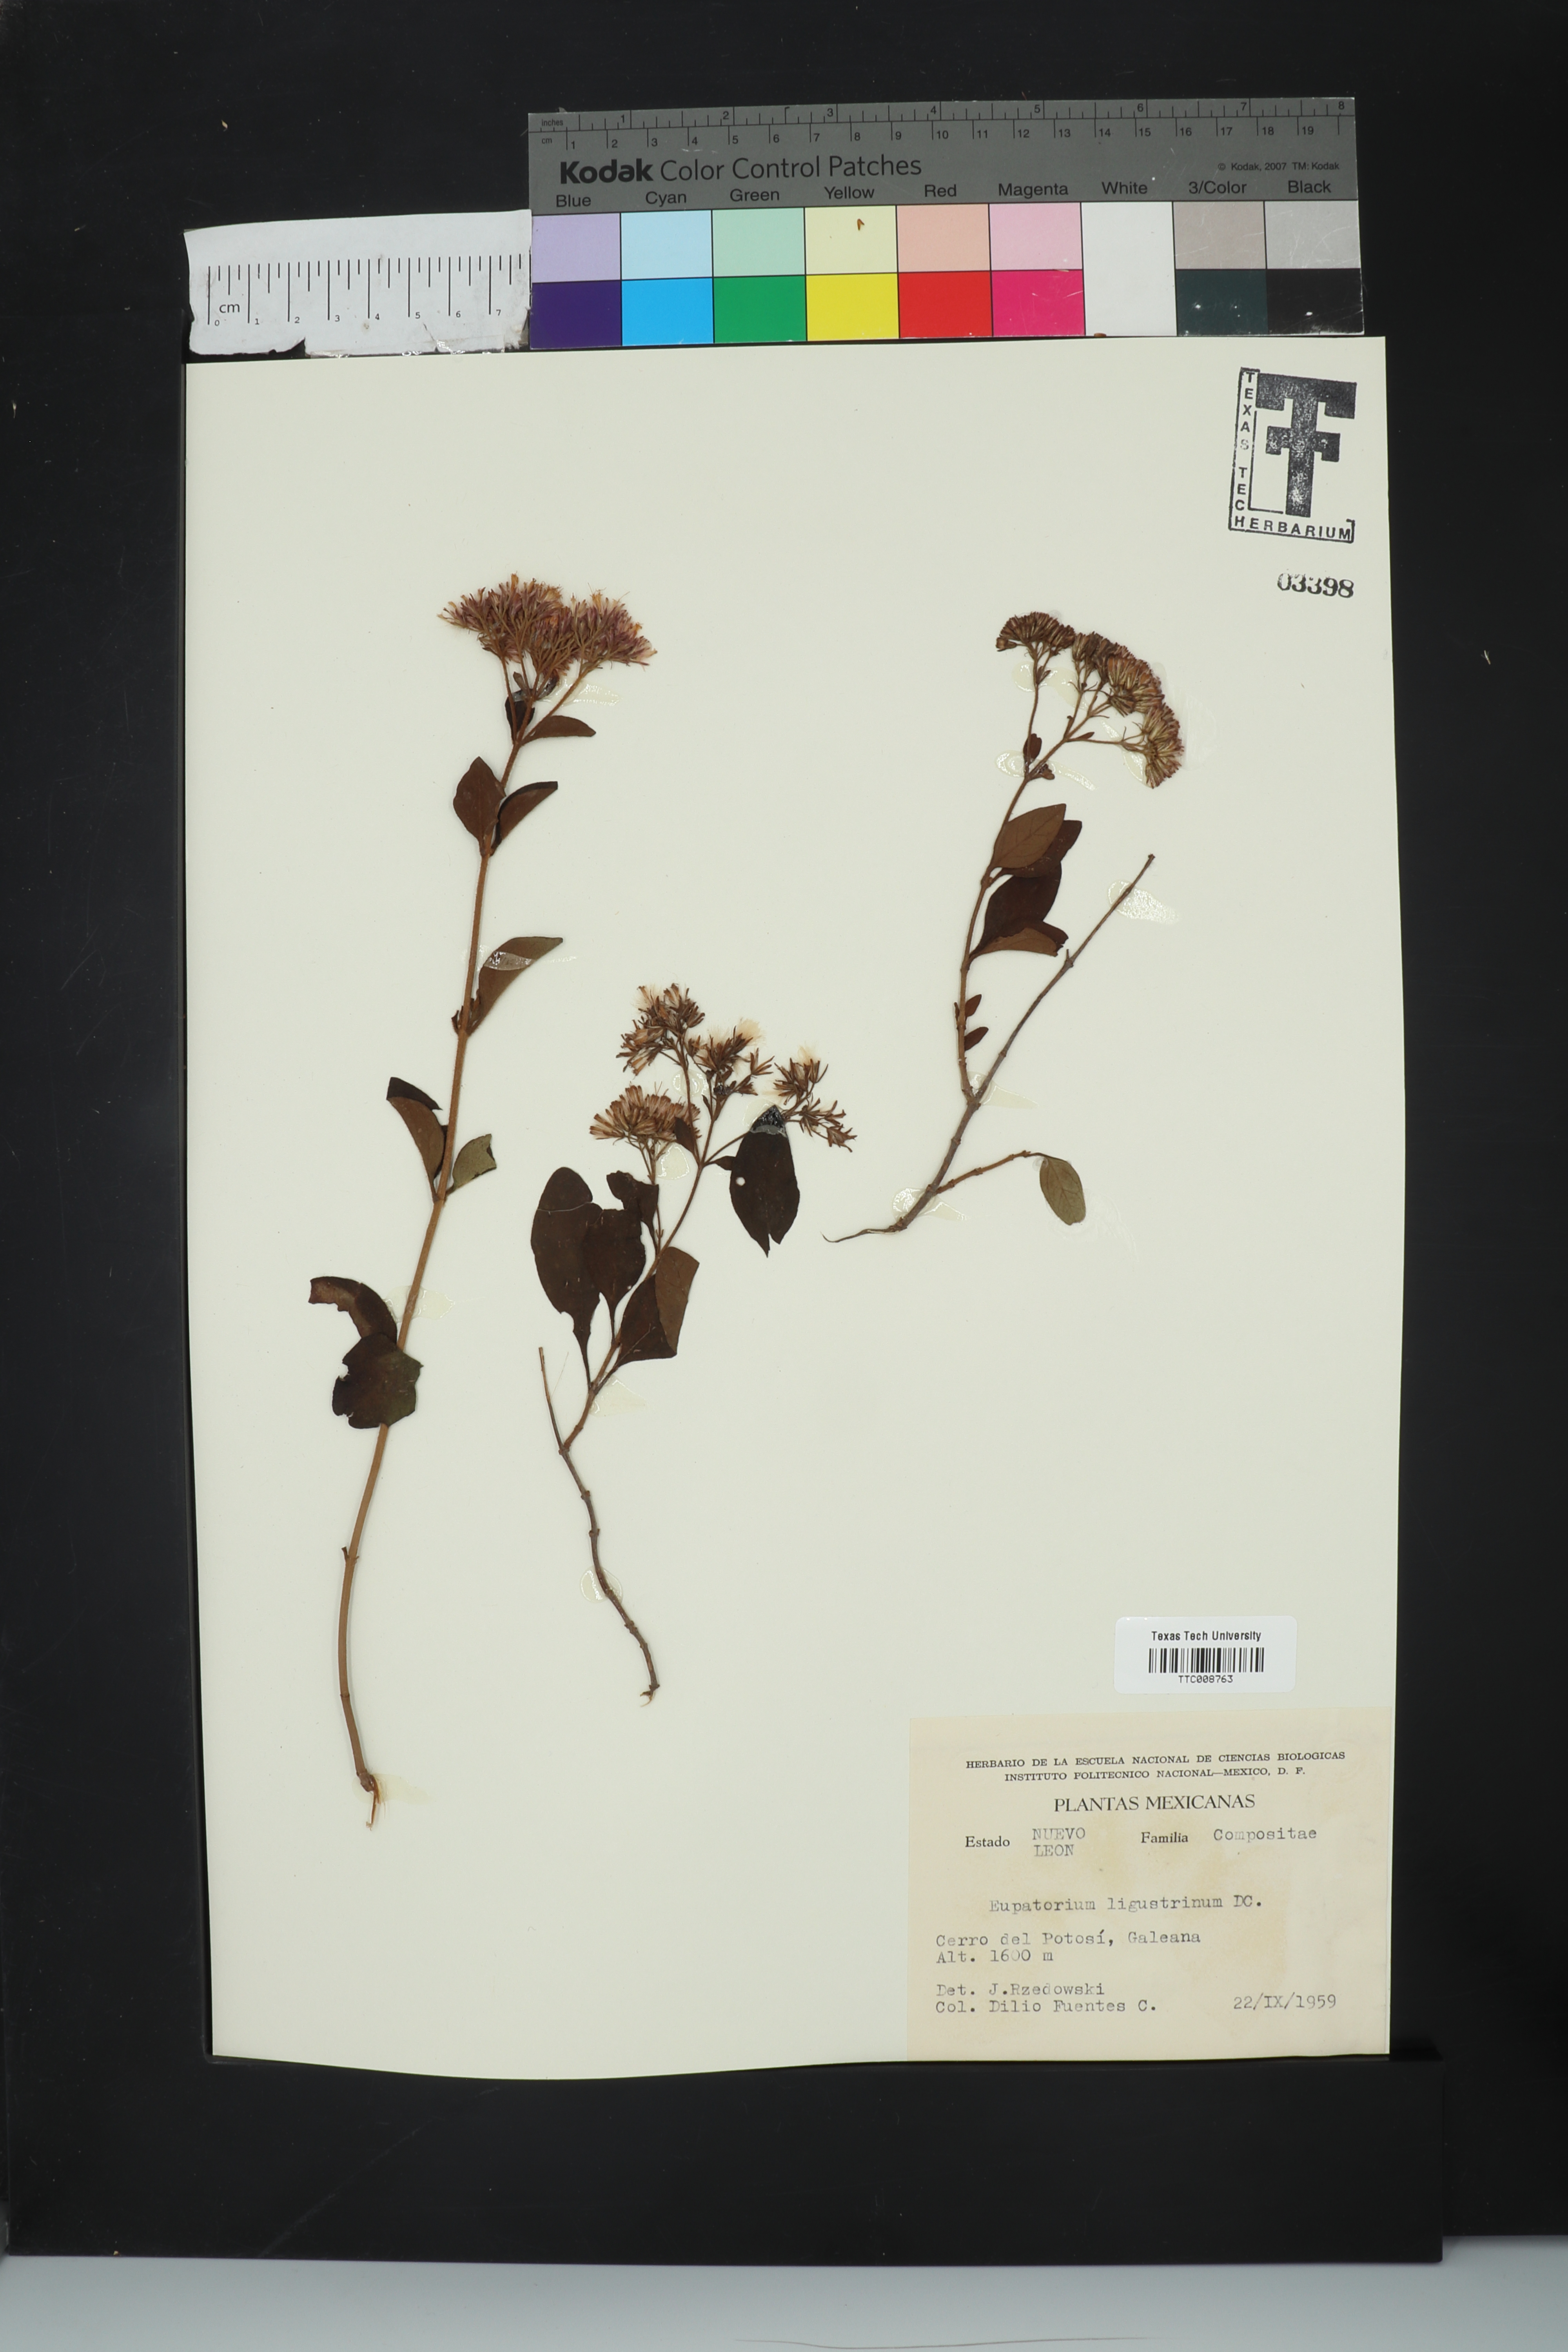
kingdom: Plantae
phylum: Tracheophyta
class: Magnoliopsida
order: Asterales
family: Asteraceae
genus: Ageratina
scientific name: Ageratina ligustrina
